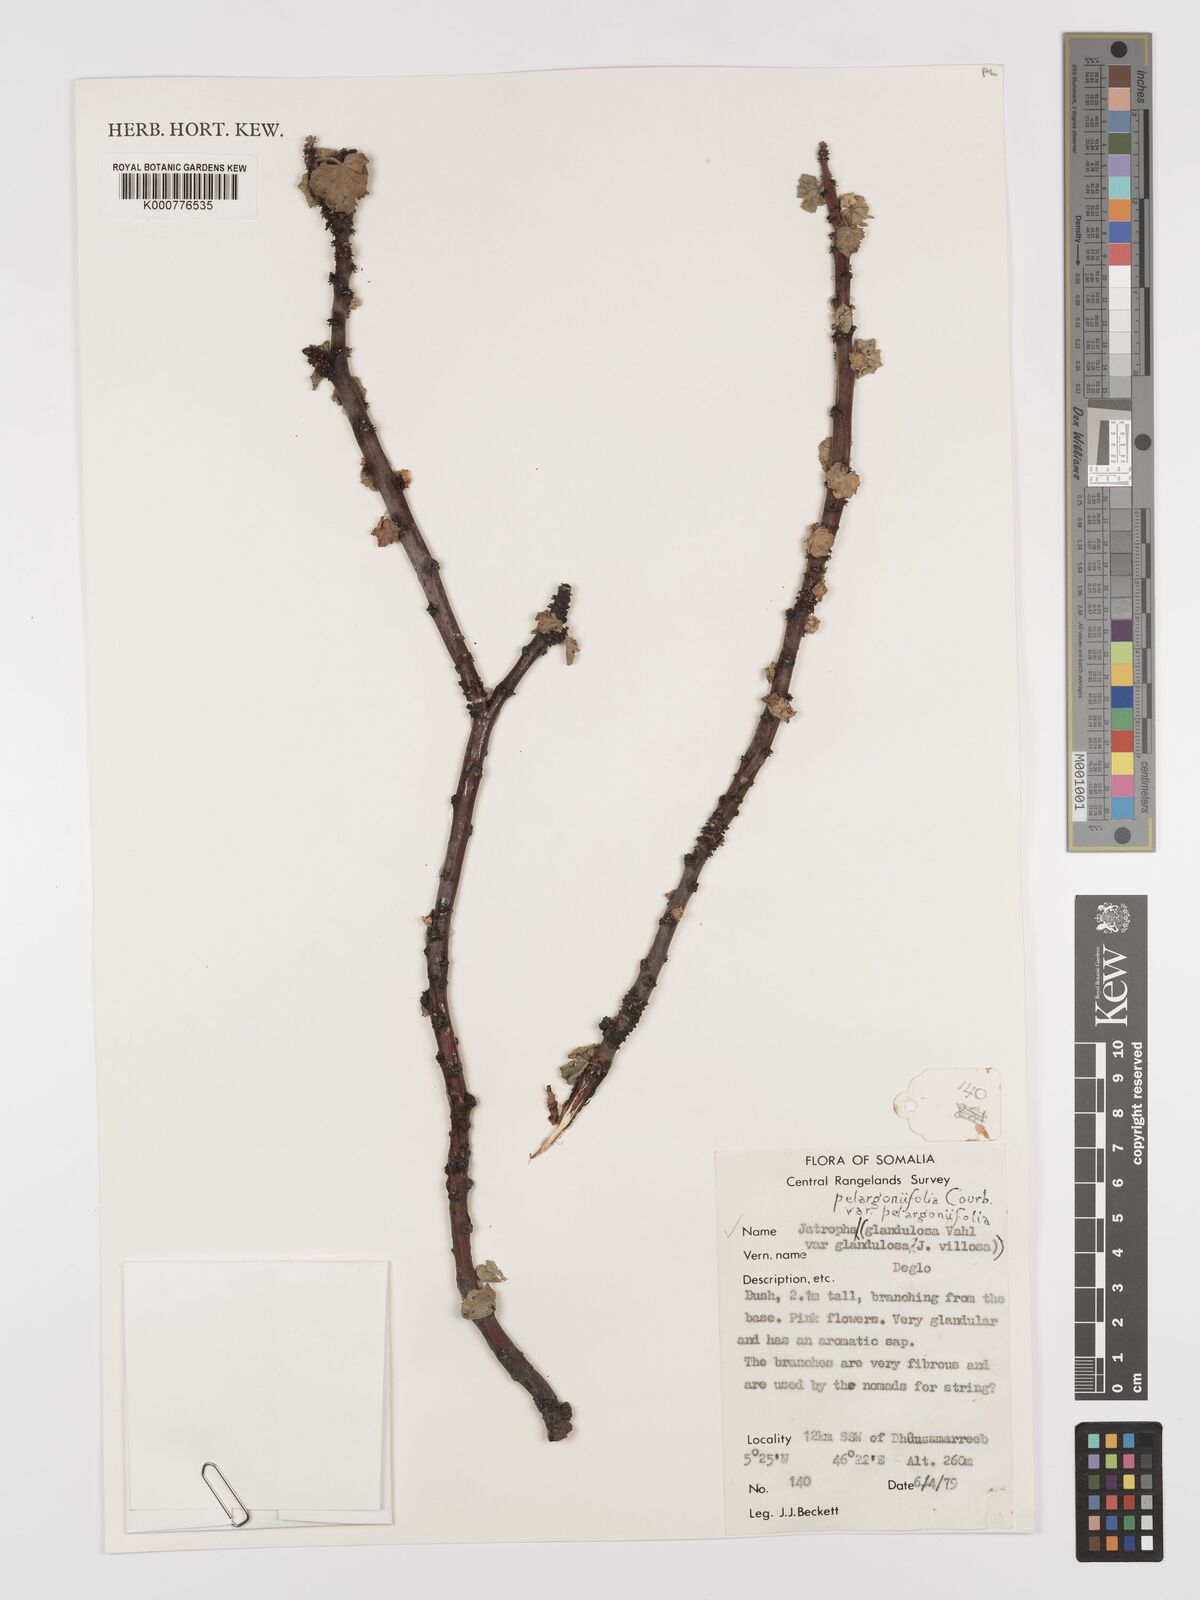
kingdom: Plantae
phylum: Tracheophyta
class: Magnoliopsida
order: Malpighiales
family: Euphorbiaceae
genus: Jatropha
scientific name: Jatropha pelargoniifolia
